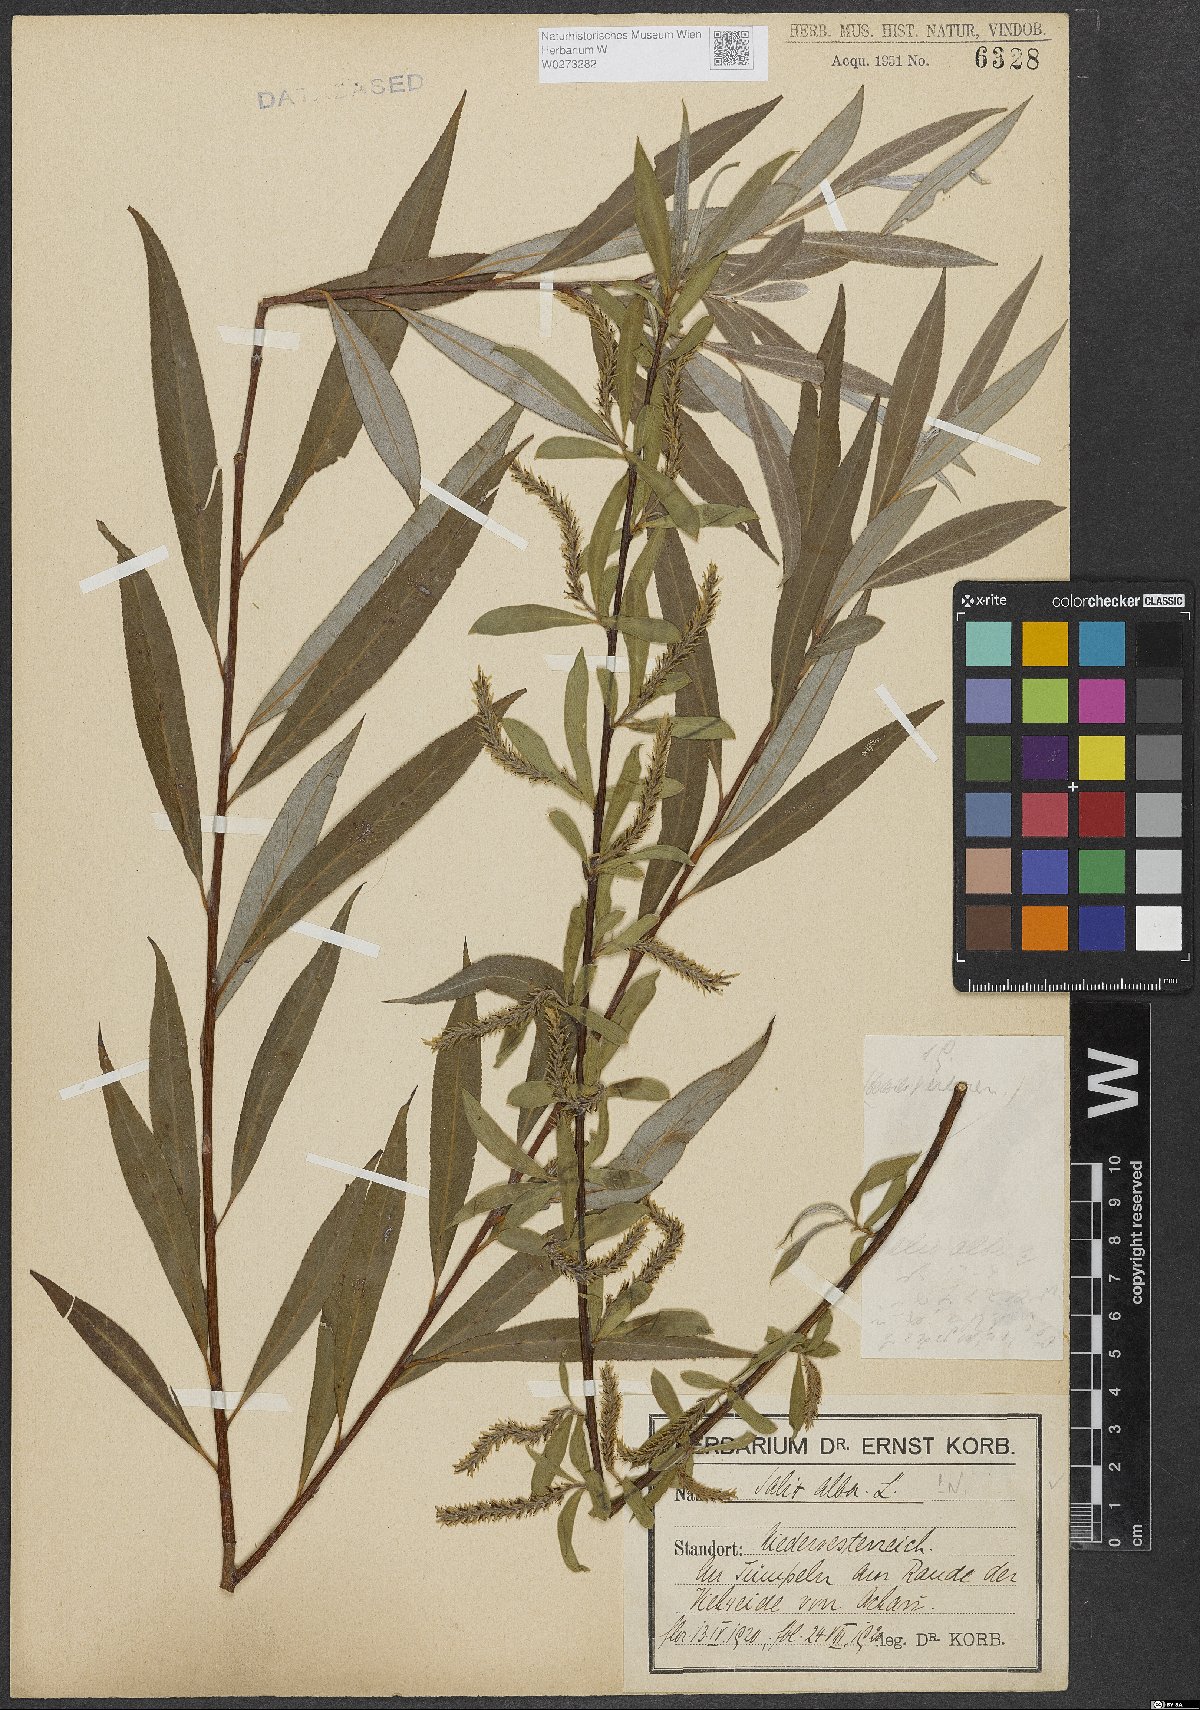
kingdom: Plantae
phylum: Tracheophyta
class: Magnoliopsida
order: Malpighiales
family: Salicaceae
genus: Salix
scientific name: Salix alba
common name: White willow
